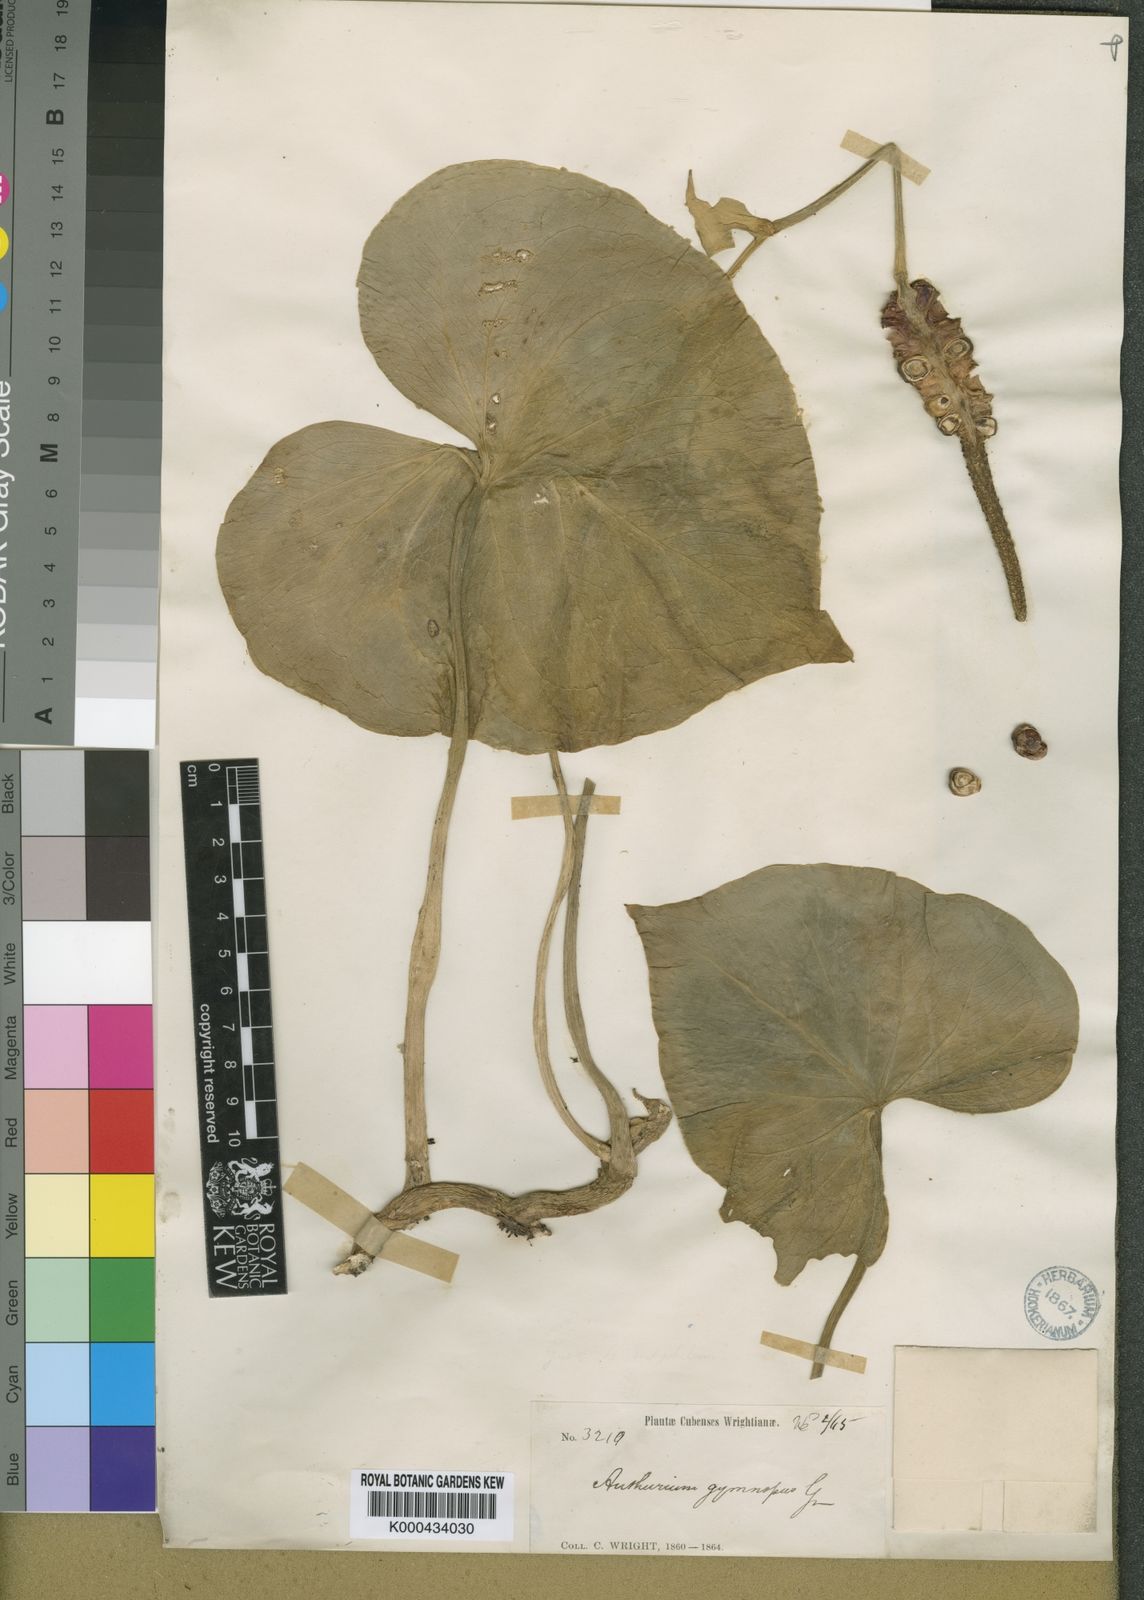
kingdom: Plantae
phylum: Tracheophyta
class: Liliopsida
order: Alismatales
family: Araceae
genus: Anthurium
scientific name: Anthurium gymnopus
